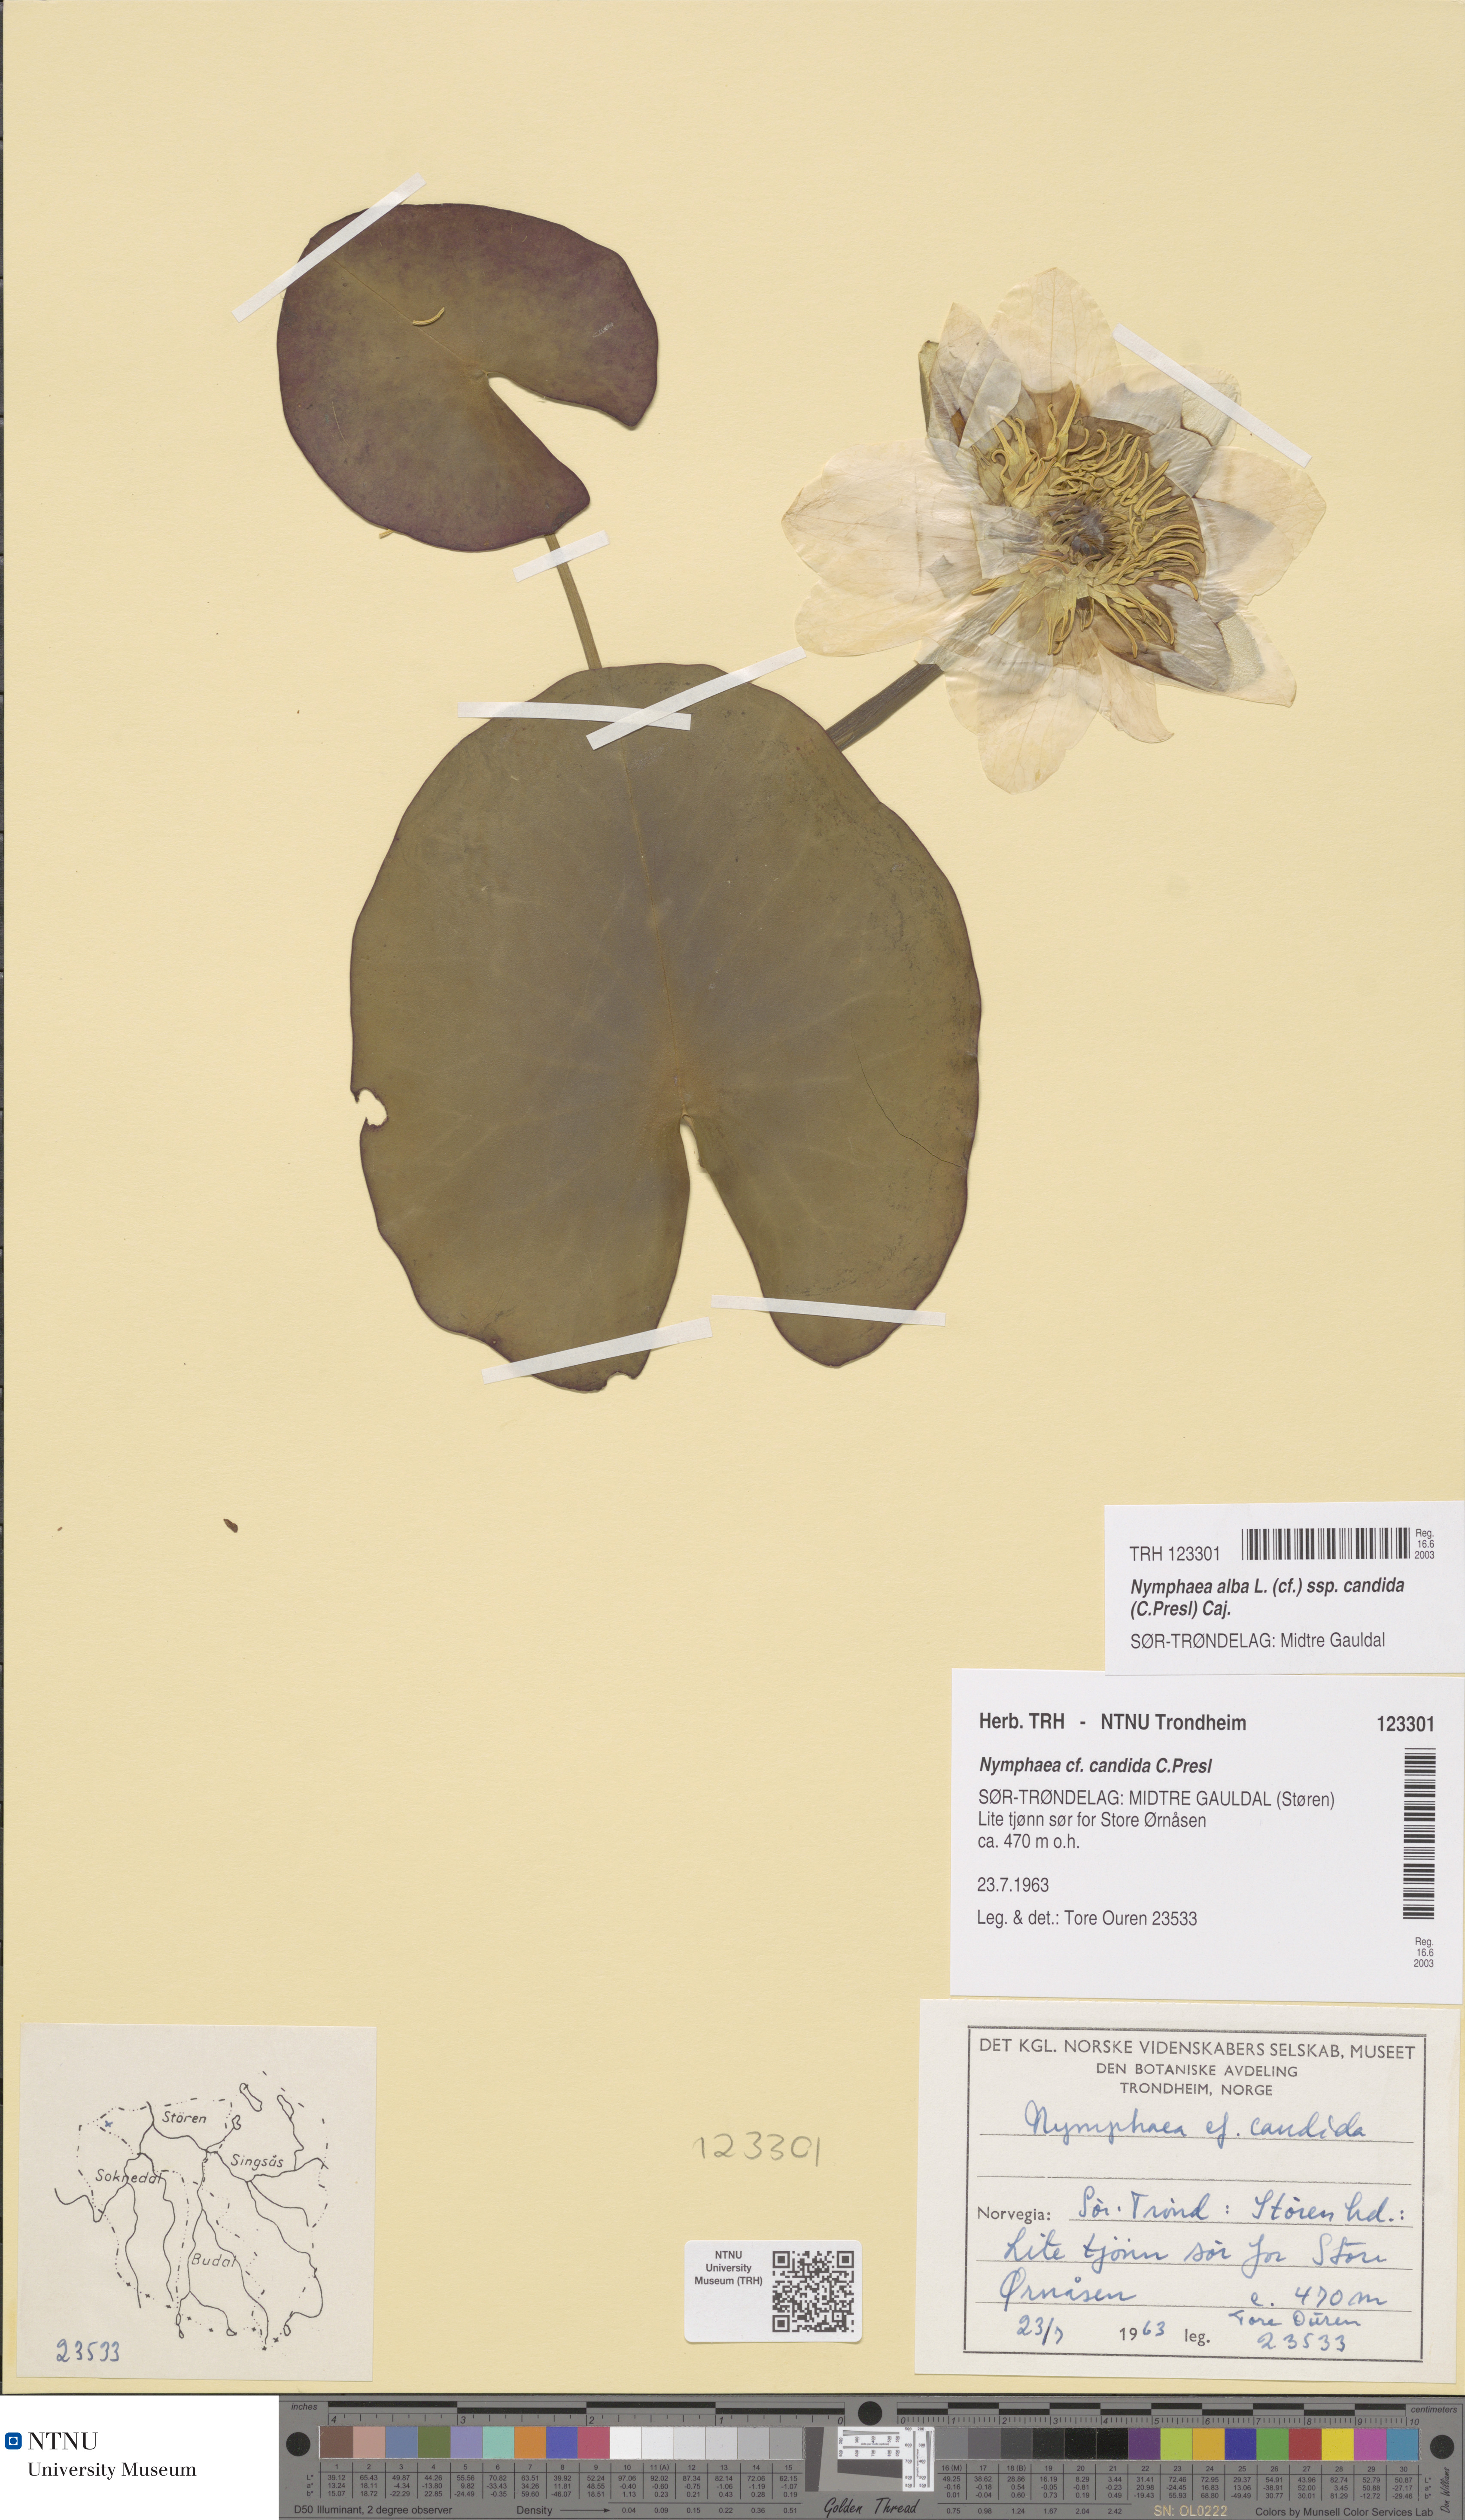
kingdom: Plantae
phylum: Tracheophyta
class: Magnoliopsida
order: Nymphaeales
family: Nymphaeaceae
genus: Nymphaea
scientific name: Nymphaea candida
